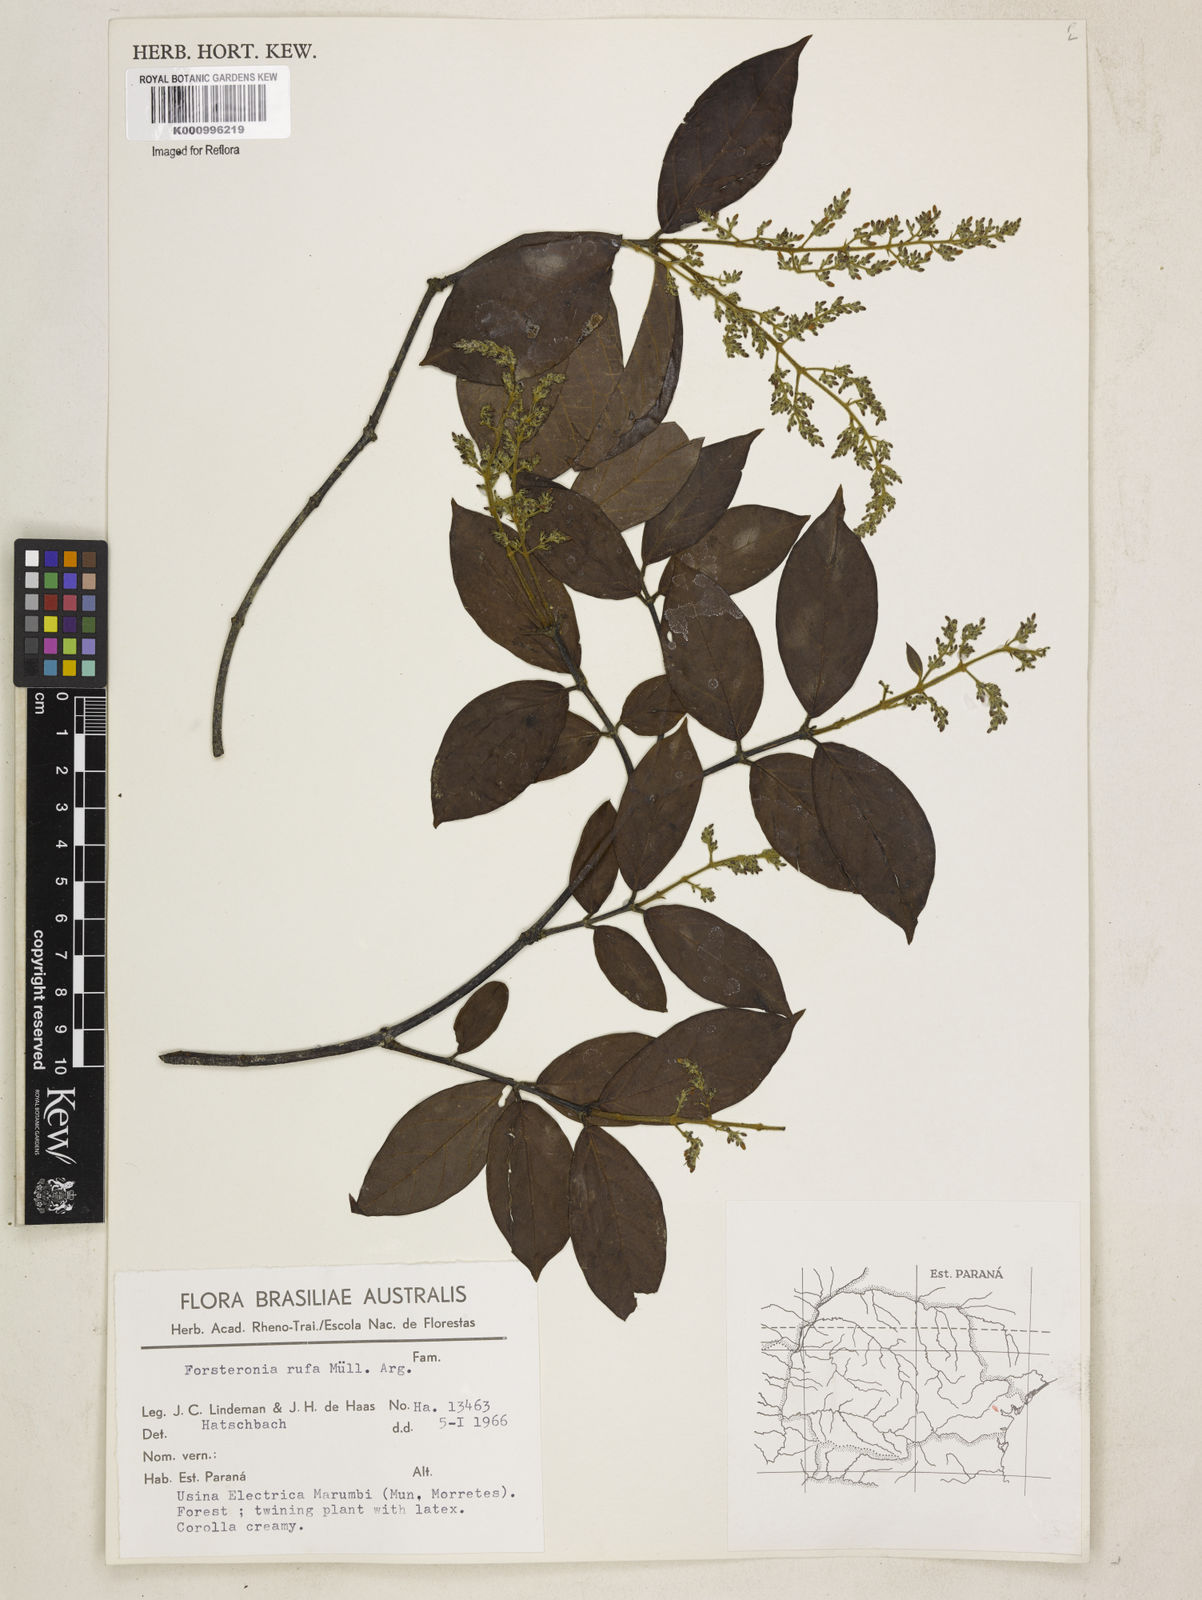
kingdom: Plantae
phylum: Tracheophyta
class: Magnoliopsida
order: Gentianales
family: Apocynaceae
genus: Forsteronia
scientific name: Forsteronia
